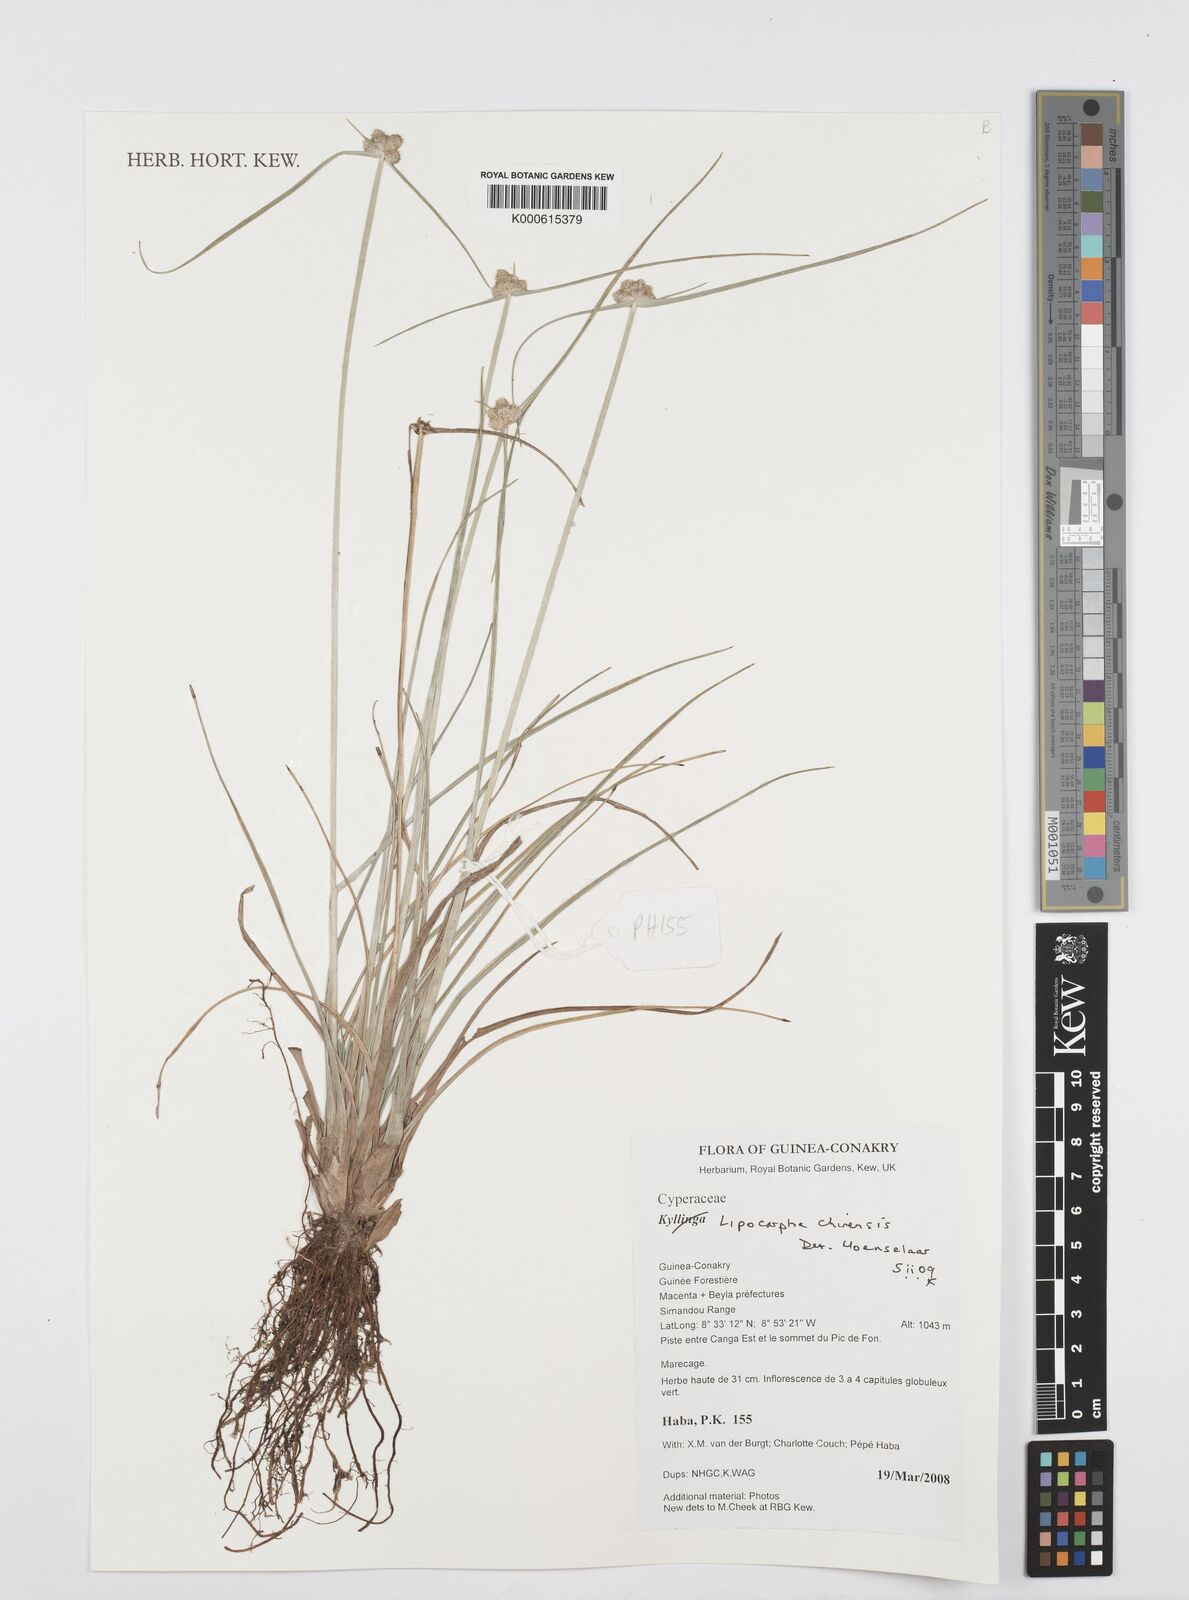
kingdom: Plantae
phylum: Tracheophyta
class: Liliopsida
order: Poales
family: Cyperaceae
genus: Cyperus
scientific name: Cyperus albescens
